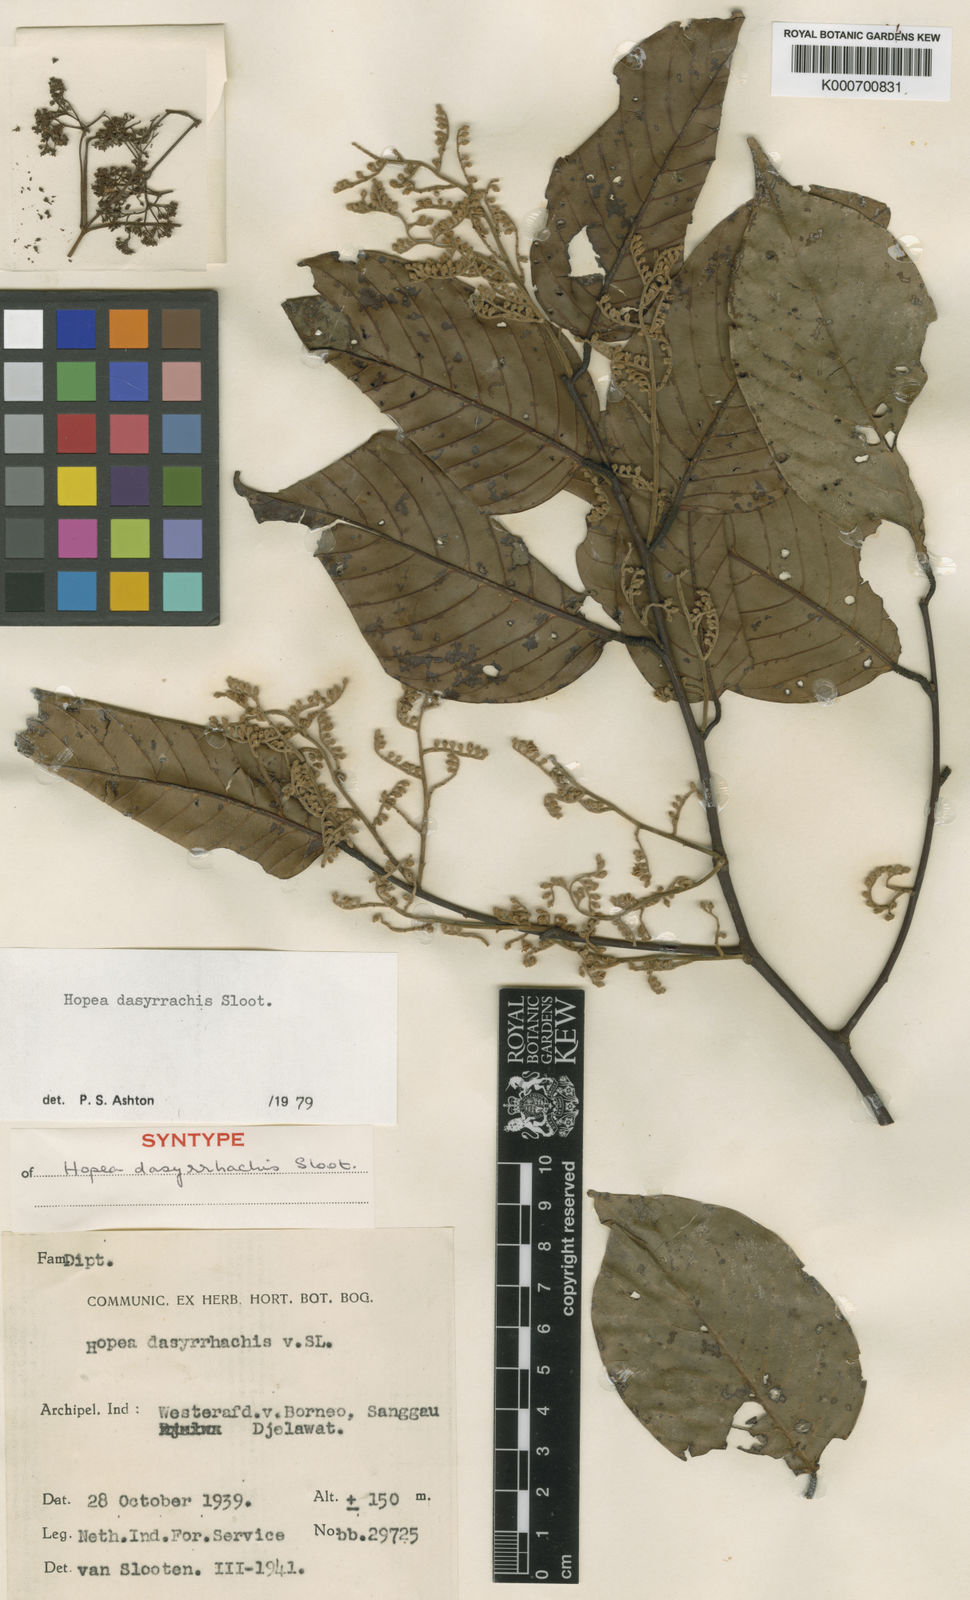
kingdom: Plantae
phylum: Tracheophyta
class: Magnoliopsida
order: Malvales
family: Dipterocarpaceae
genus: Hopea
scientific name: Hopea dasyrrhachis
